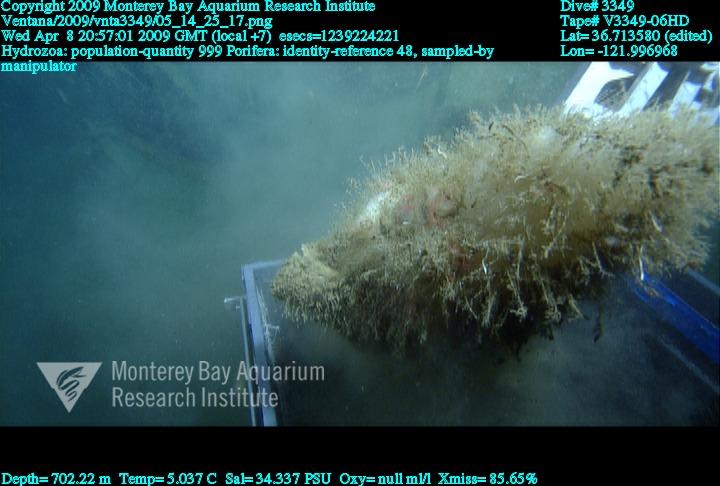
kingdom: Animalia
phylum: Porifera
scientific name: Porifera
